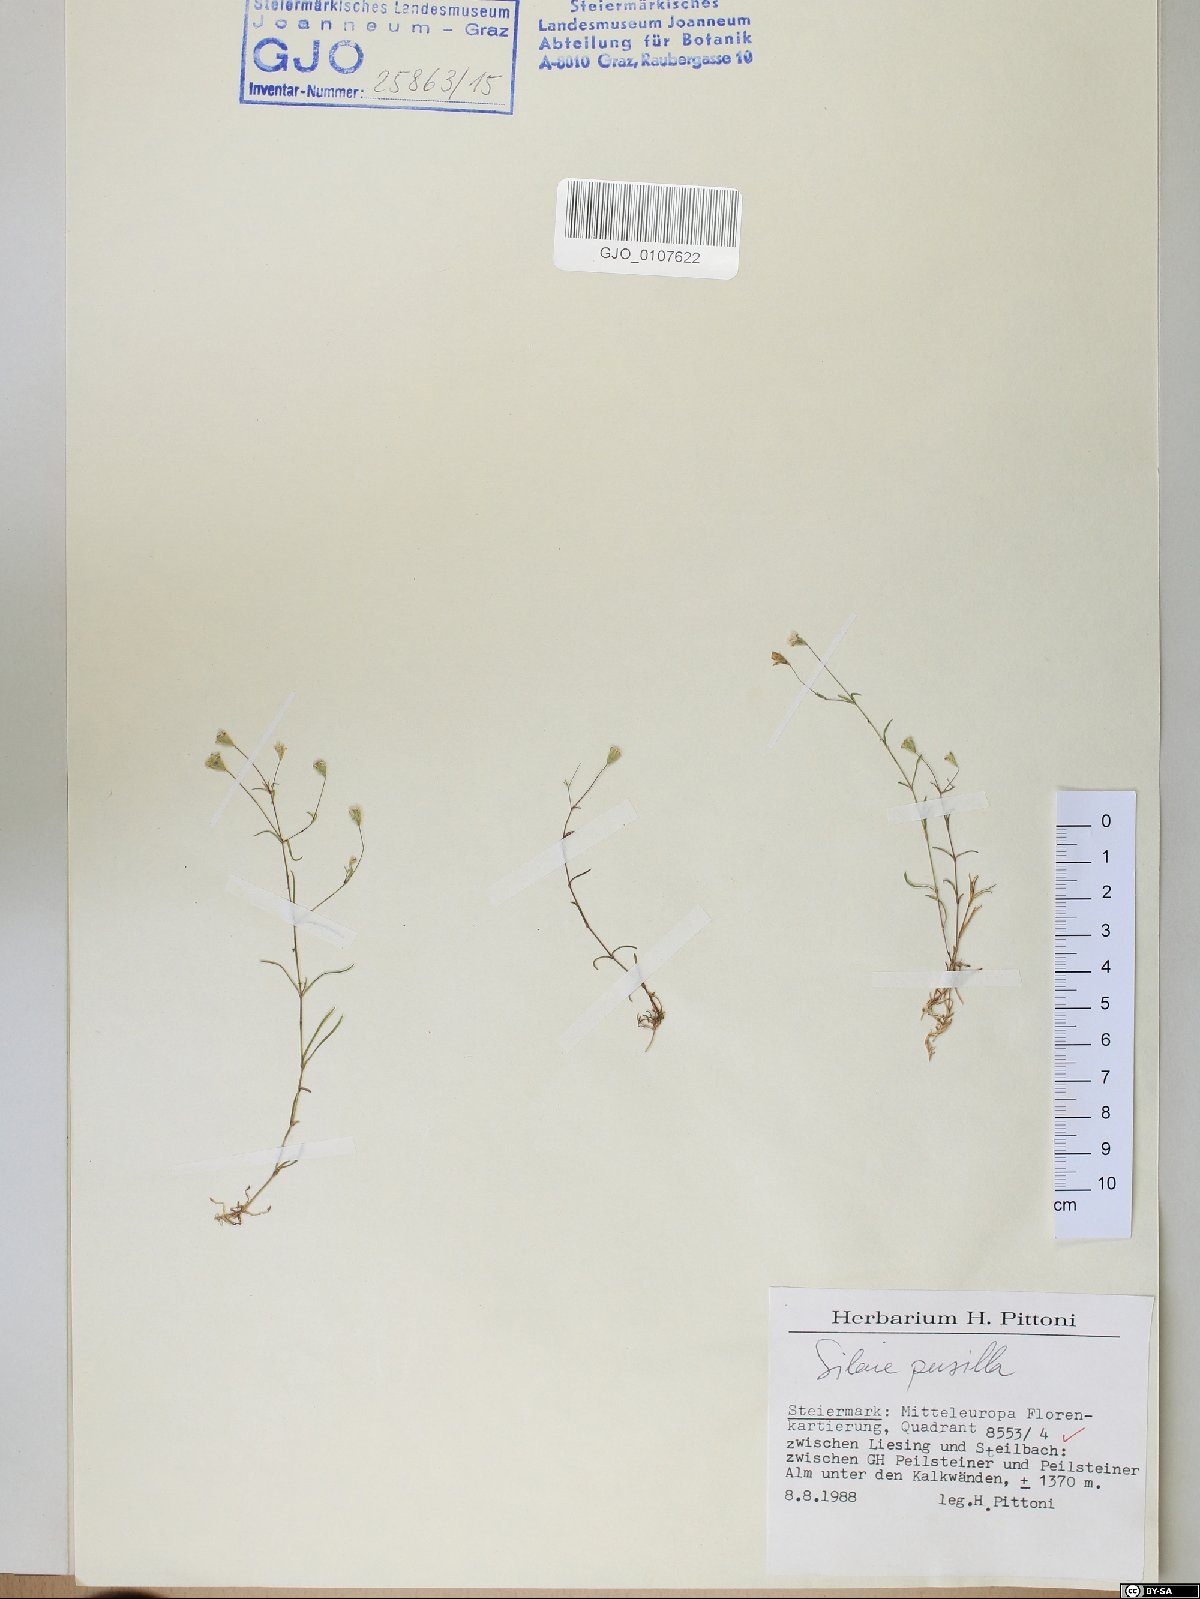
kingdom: Plantae
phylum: Tracheophyta
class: Magnoliopsida
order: Caryophyllales
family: Caryophyllaceae
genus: Heliosperma
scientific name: Heliosperma pusillum
